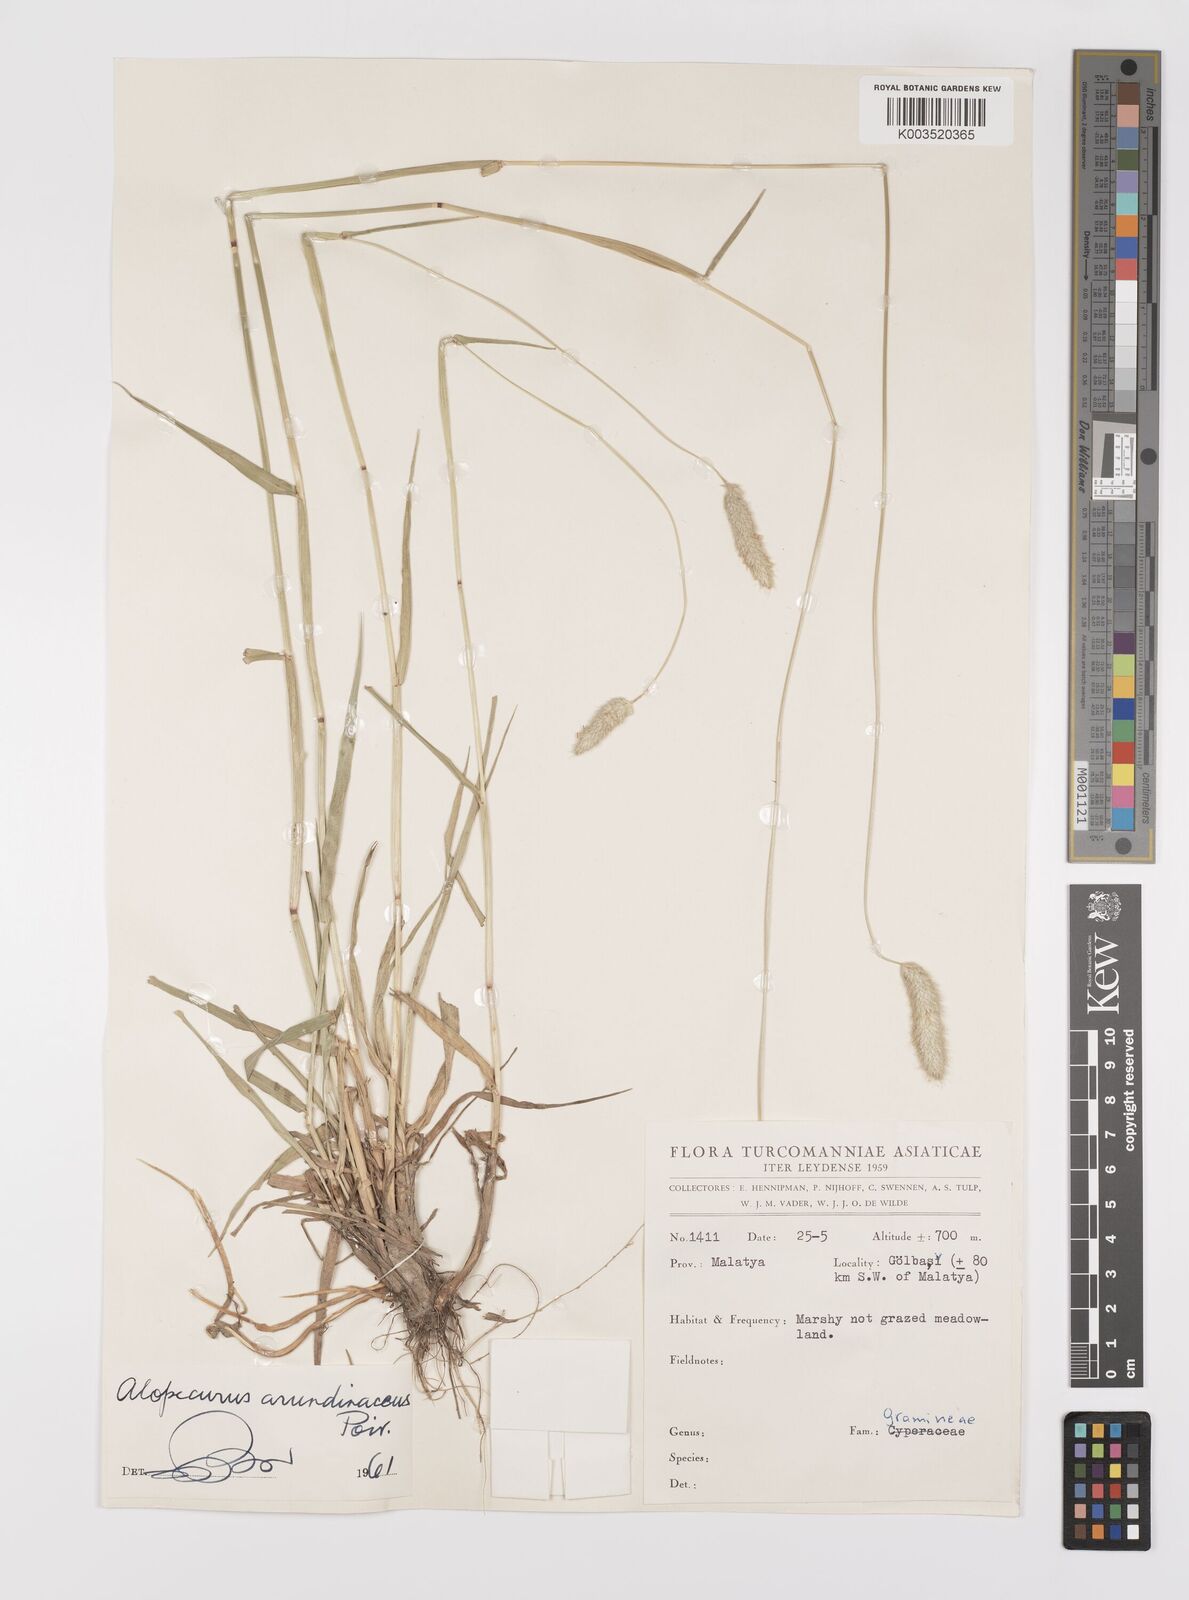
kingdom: Plantae
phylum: Tracheophyta
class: Liliopsida
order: Poales
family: Poaceae
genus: Alopecurus
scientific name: Alopecurus arundinaceus
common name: Creeping meadow foxtail
